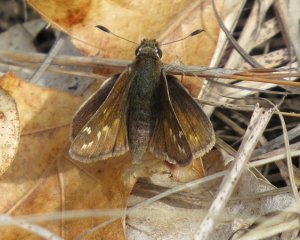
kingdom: Animalia
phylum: Arthropoda
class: Insecta
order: Lepidoptera
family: Hesperiidae
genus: Hesperia
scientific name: Hesperia metea
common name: Cobweb Skipper
